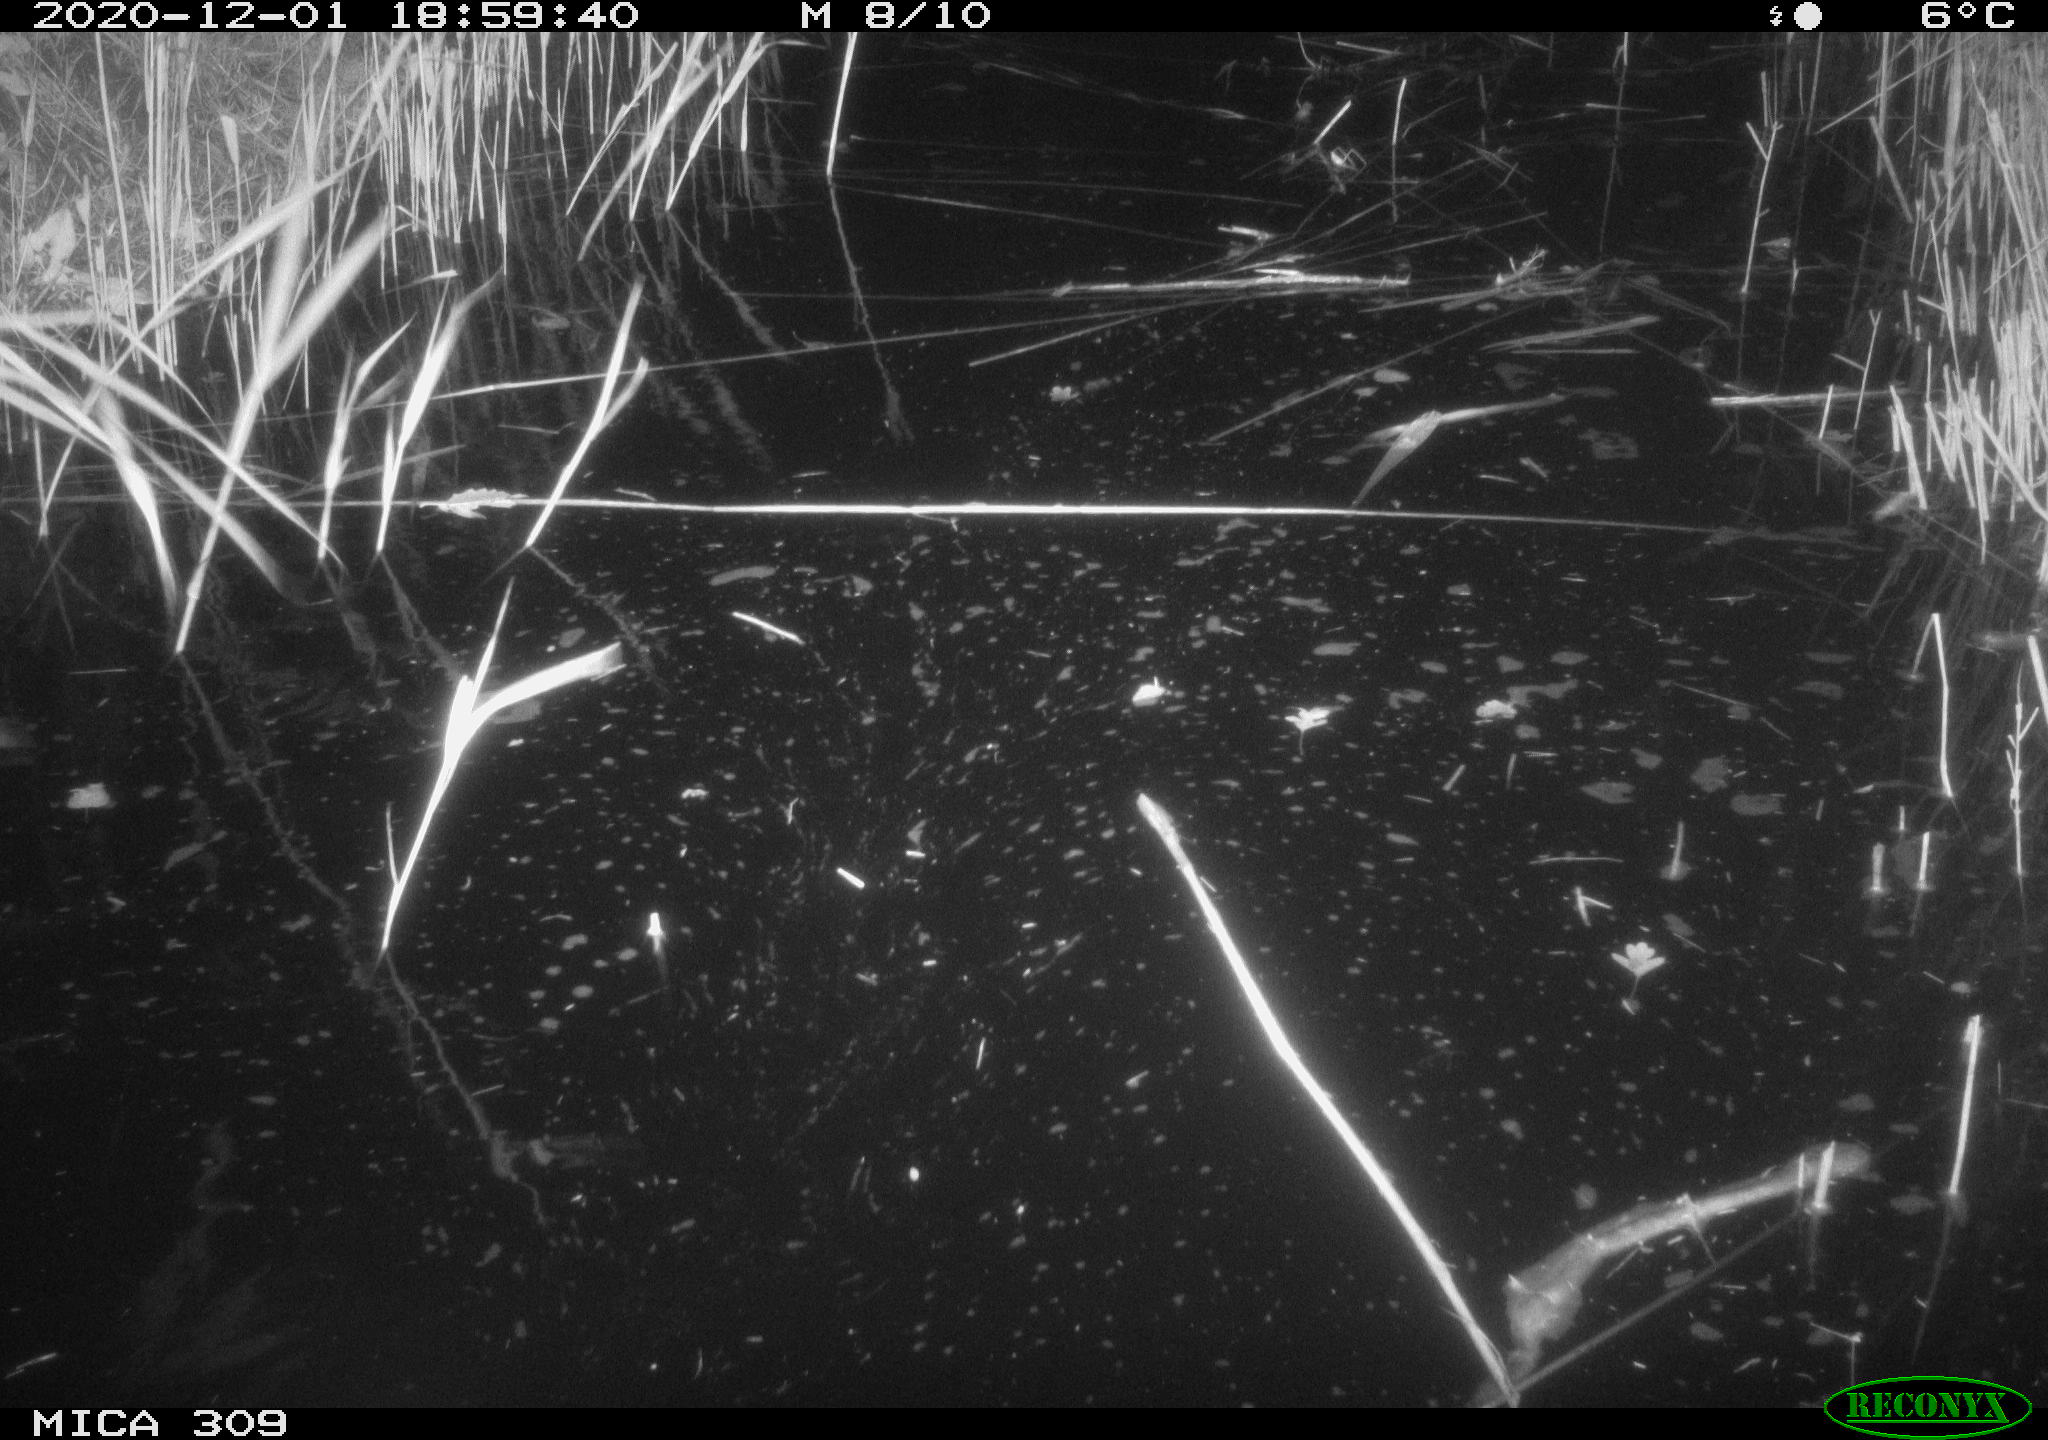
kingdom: Animalia
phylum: Chordata
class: Aves
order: Anseriformes
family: Anatidae
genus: Anas
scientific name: Anas platyrhynchos
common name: Mallard
